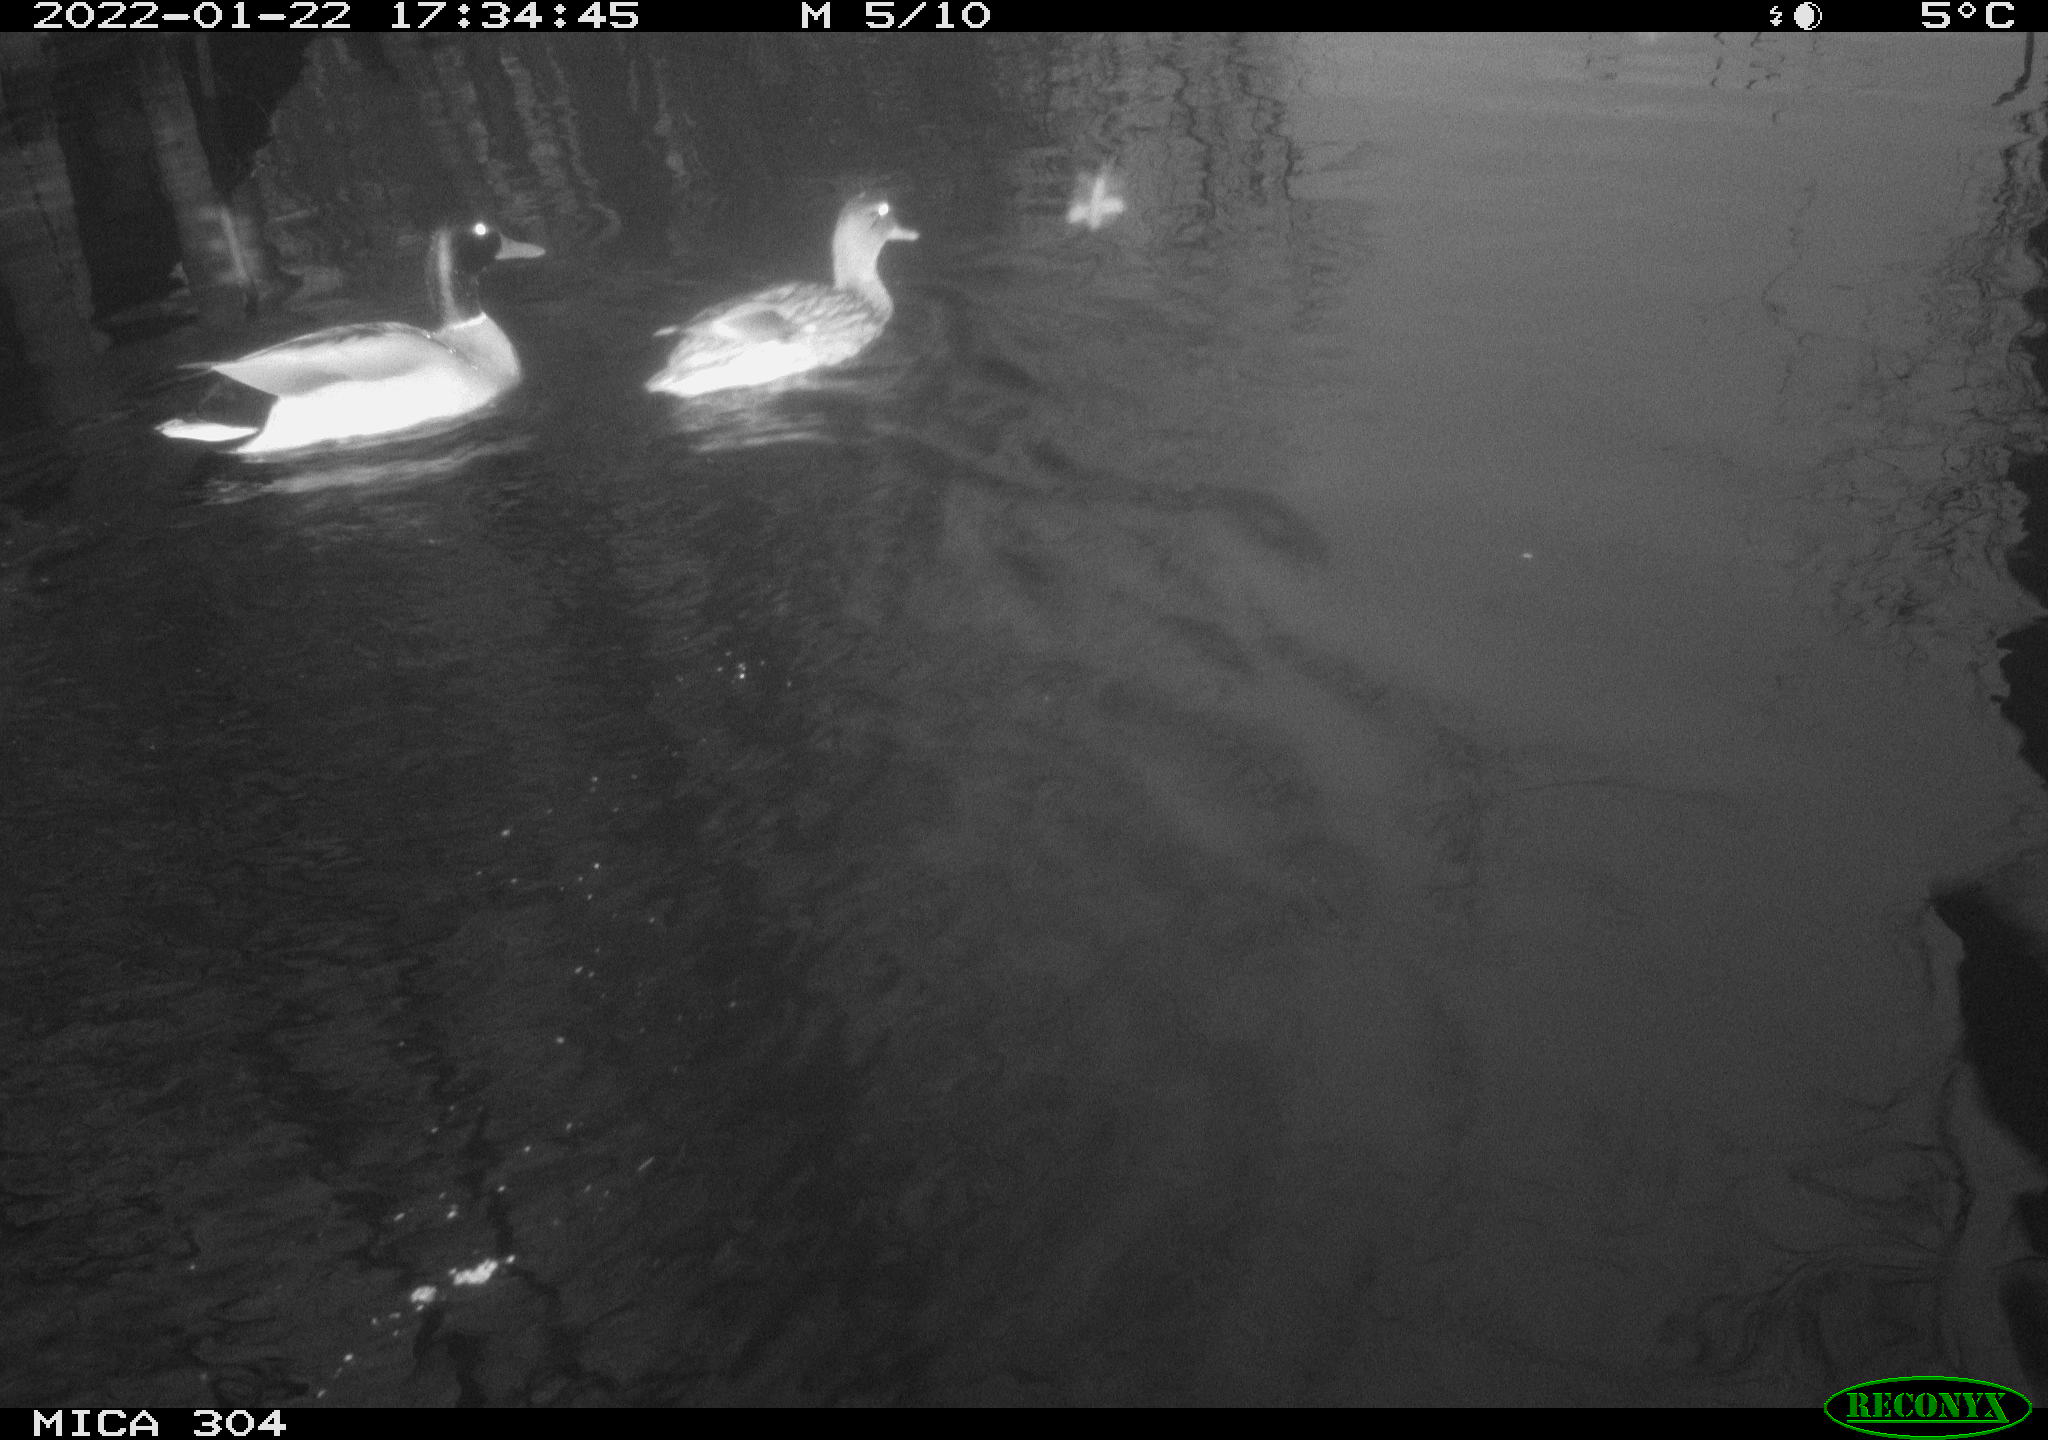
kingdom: Animalia
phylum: Chordata
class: Aves
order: Anseriformes
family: Anatidae
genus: Anas
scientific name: Anas
